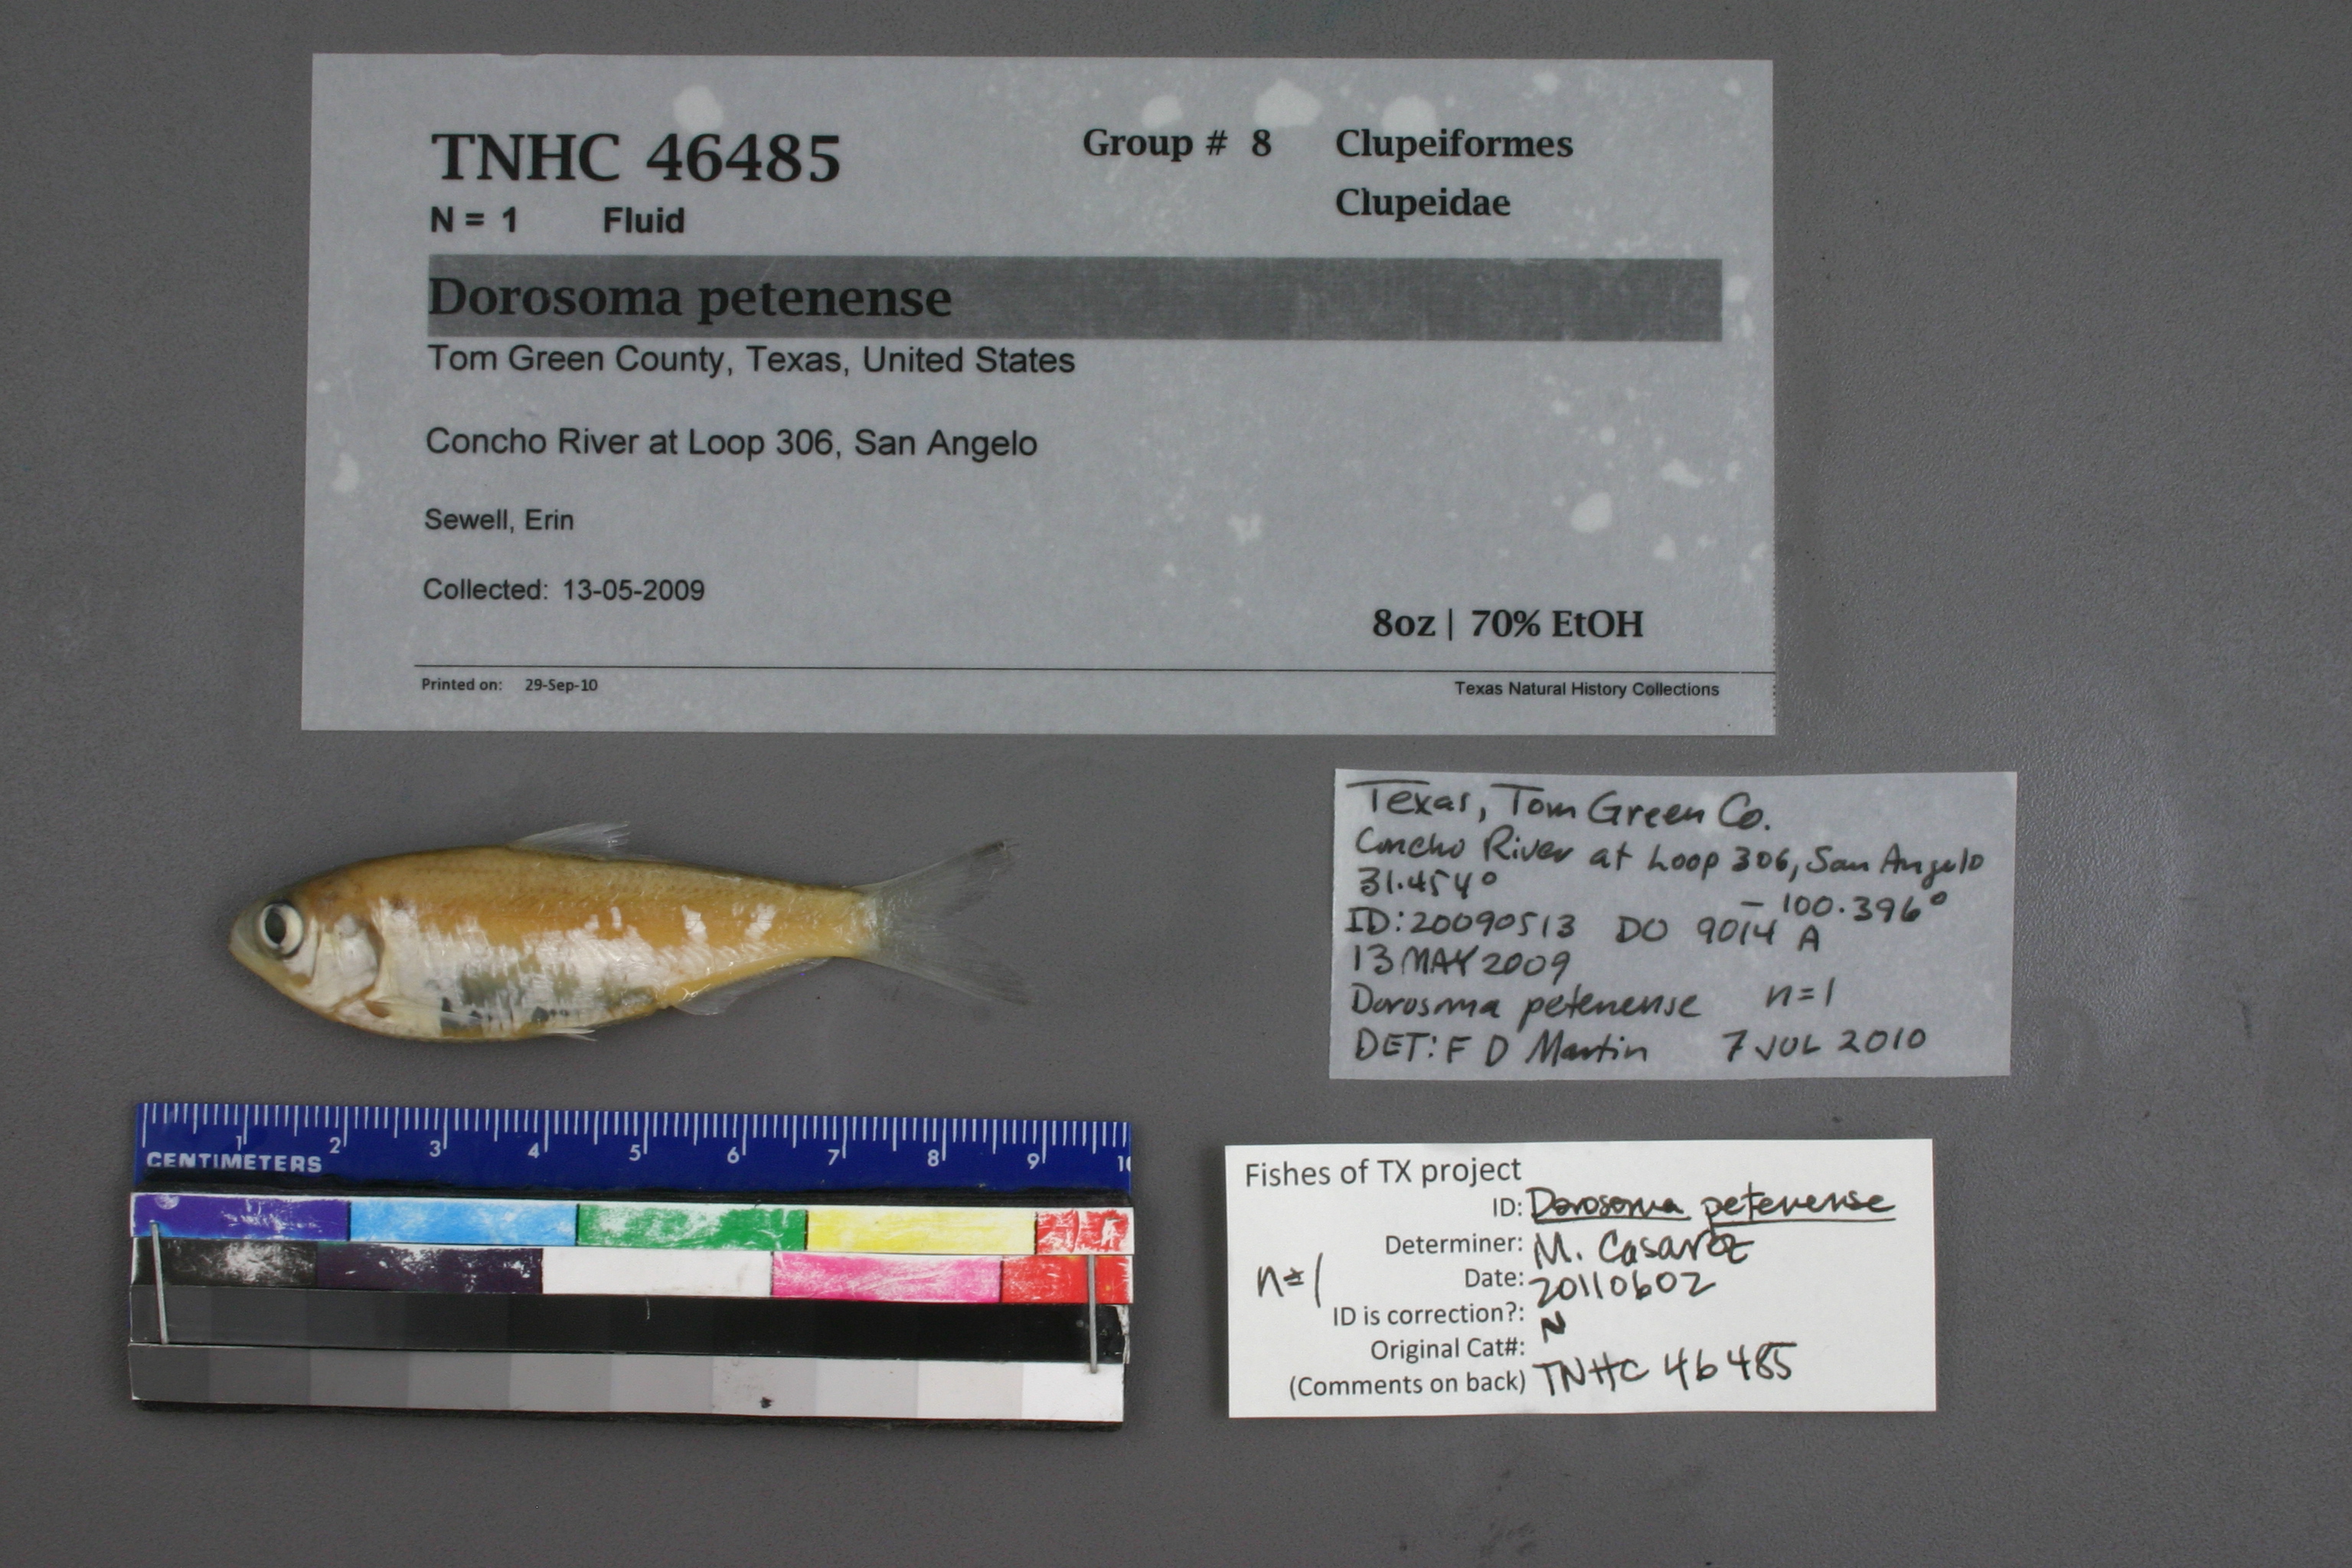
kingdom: Animalia
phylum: Chordata
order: Clupeiformes
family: Clupeidae
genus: Dorosoma
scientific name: Dorosoma petenense
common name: Threadfin shad
